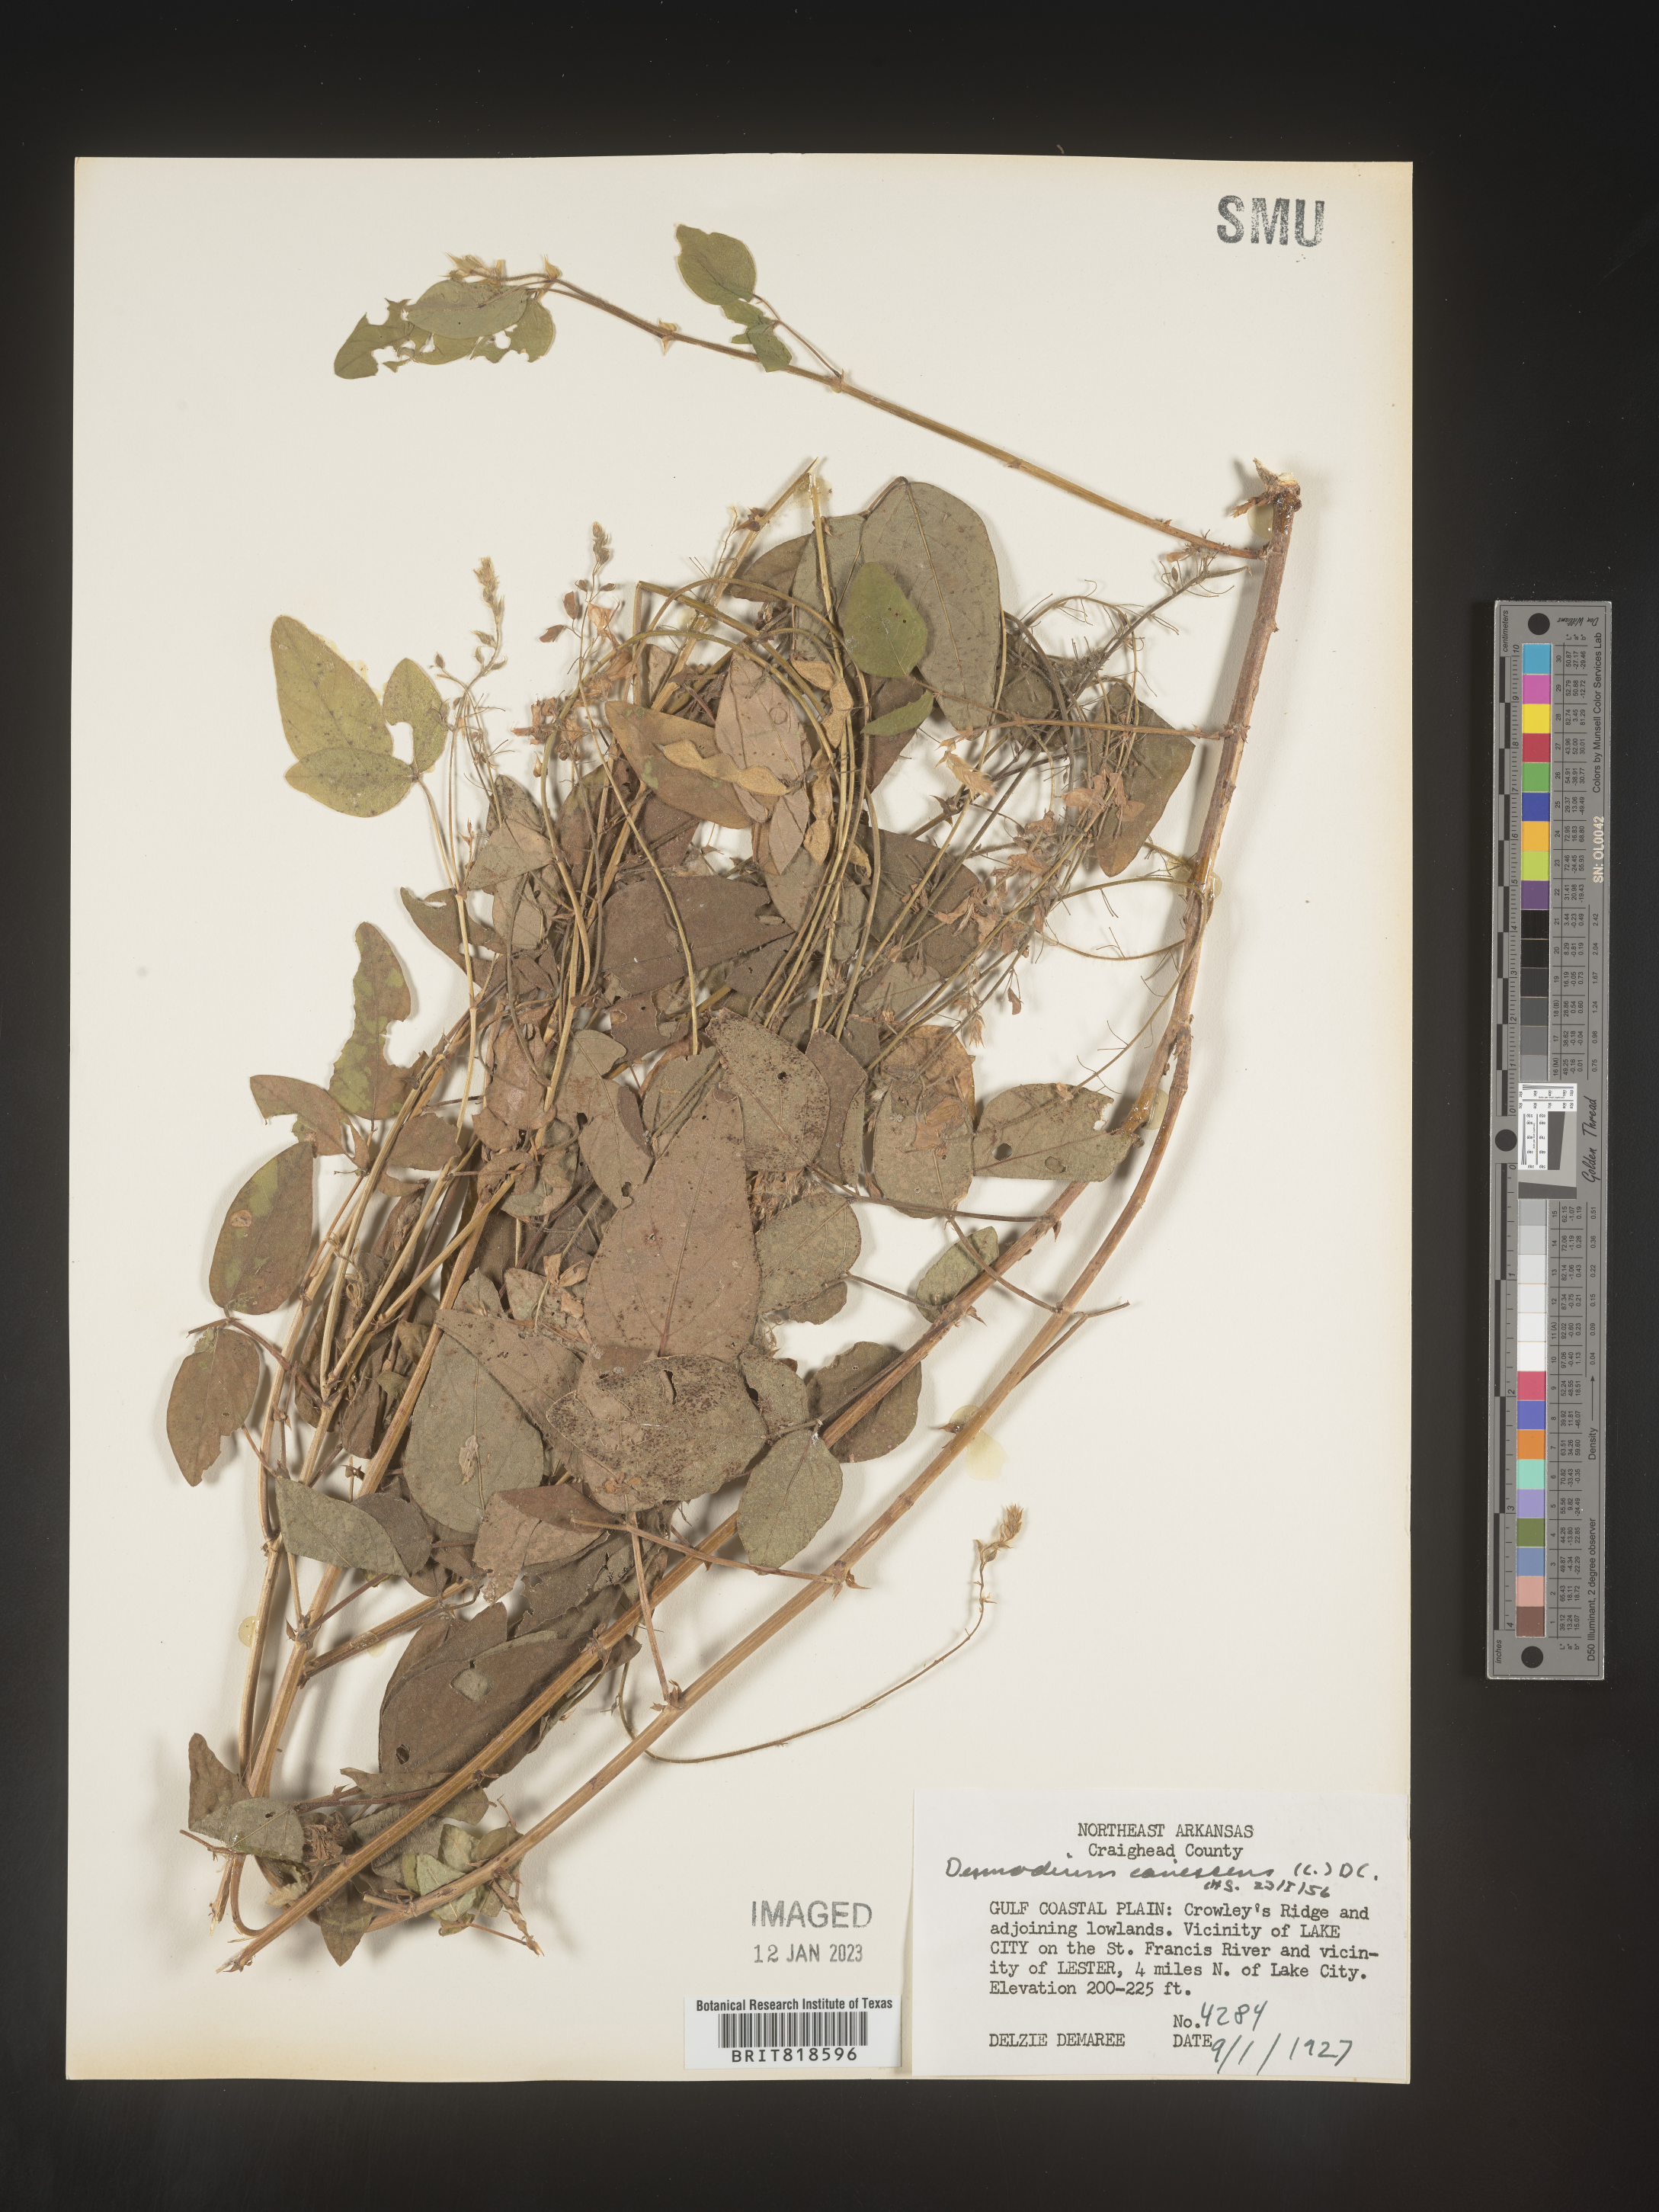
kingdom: Plantae
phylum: Tracheophyta
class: Magnoliopsida
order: Fabales
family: Fabaceae
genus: Desmodium
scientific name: Desmodium canescens
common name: Hoary tick-clover
